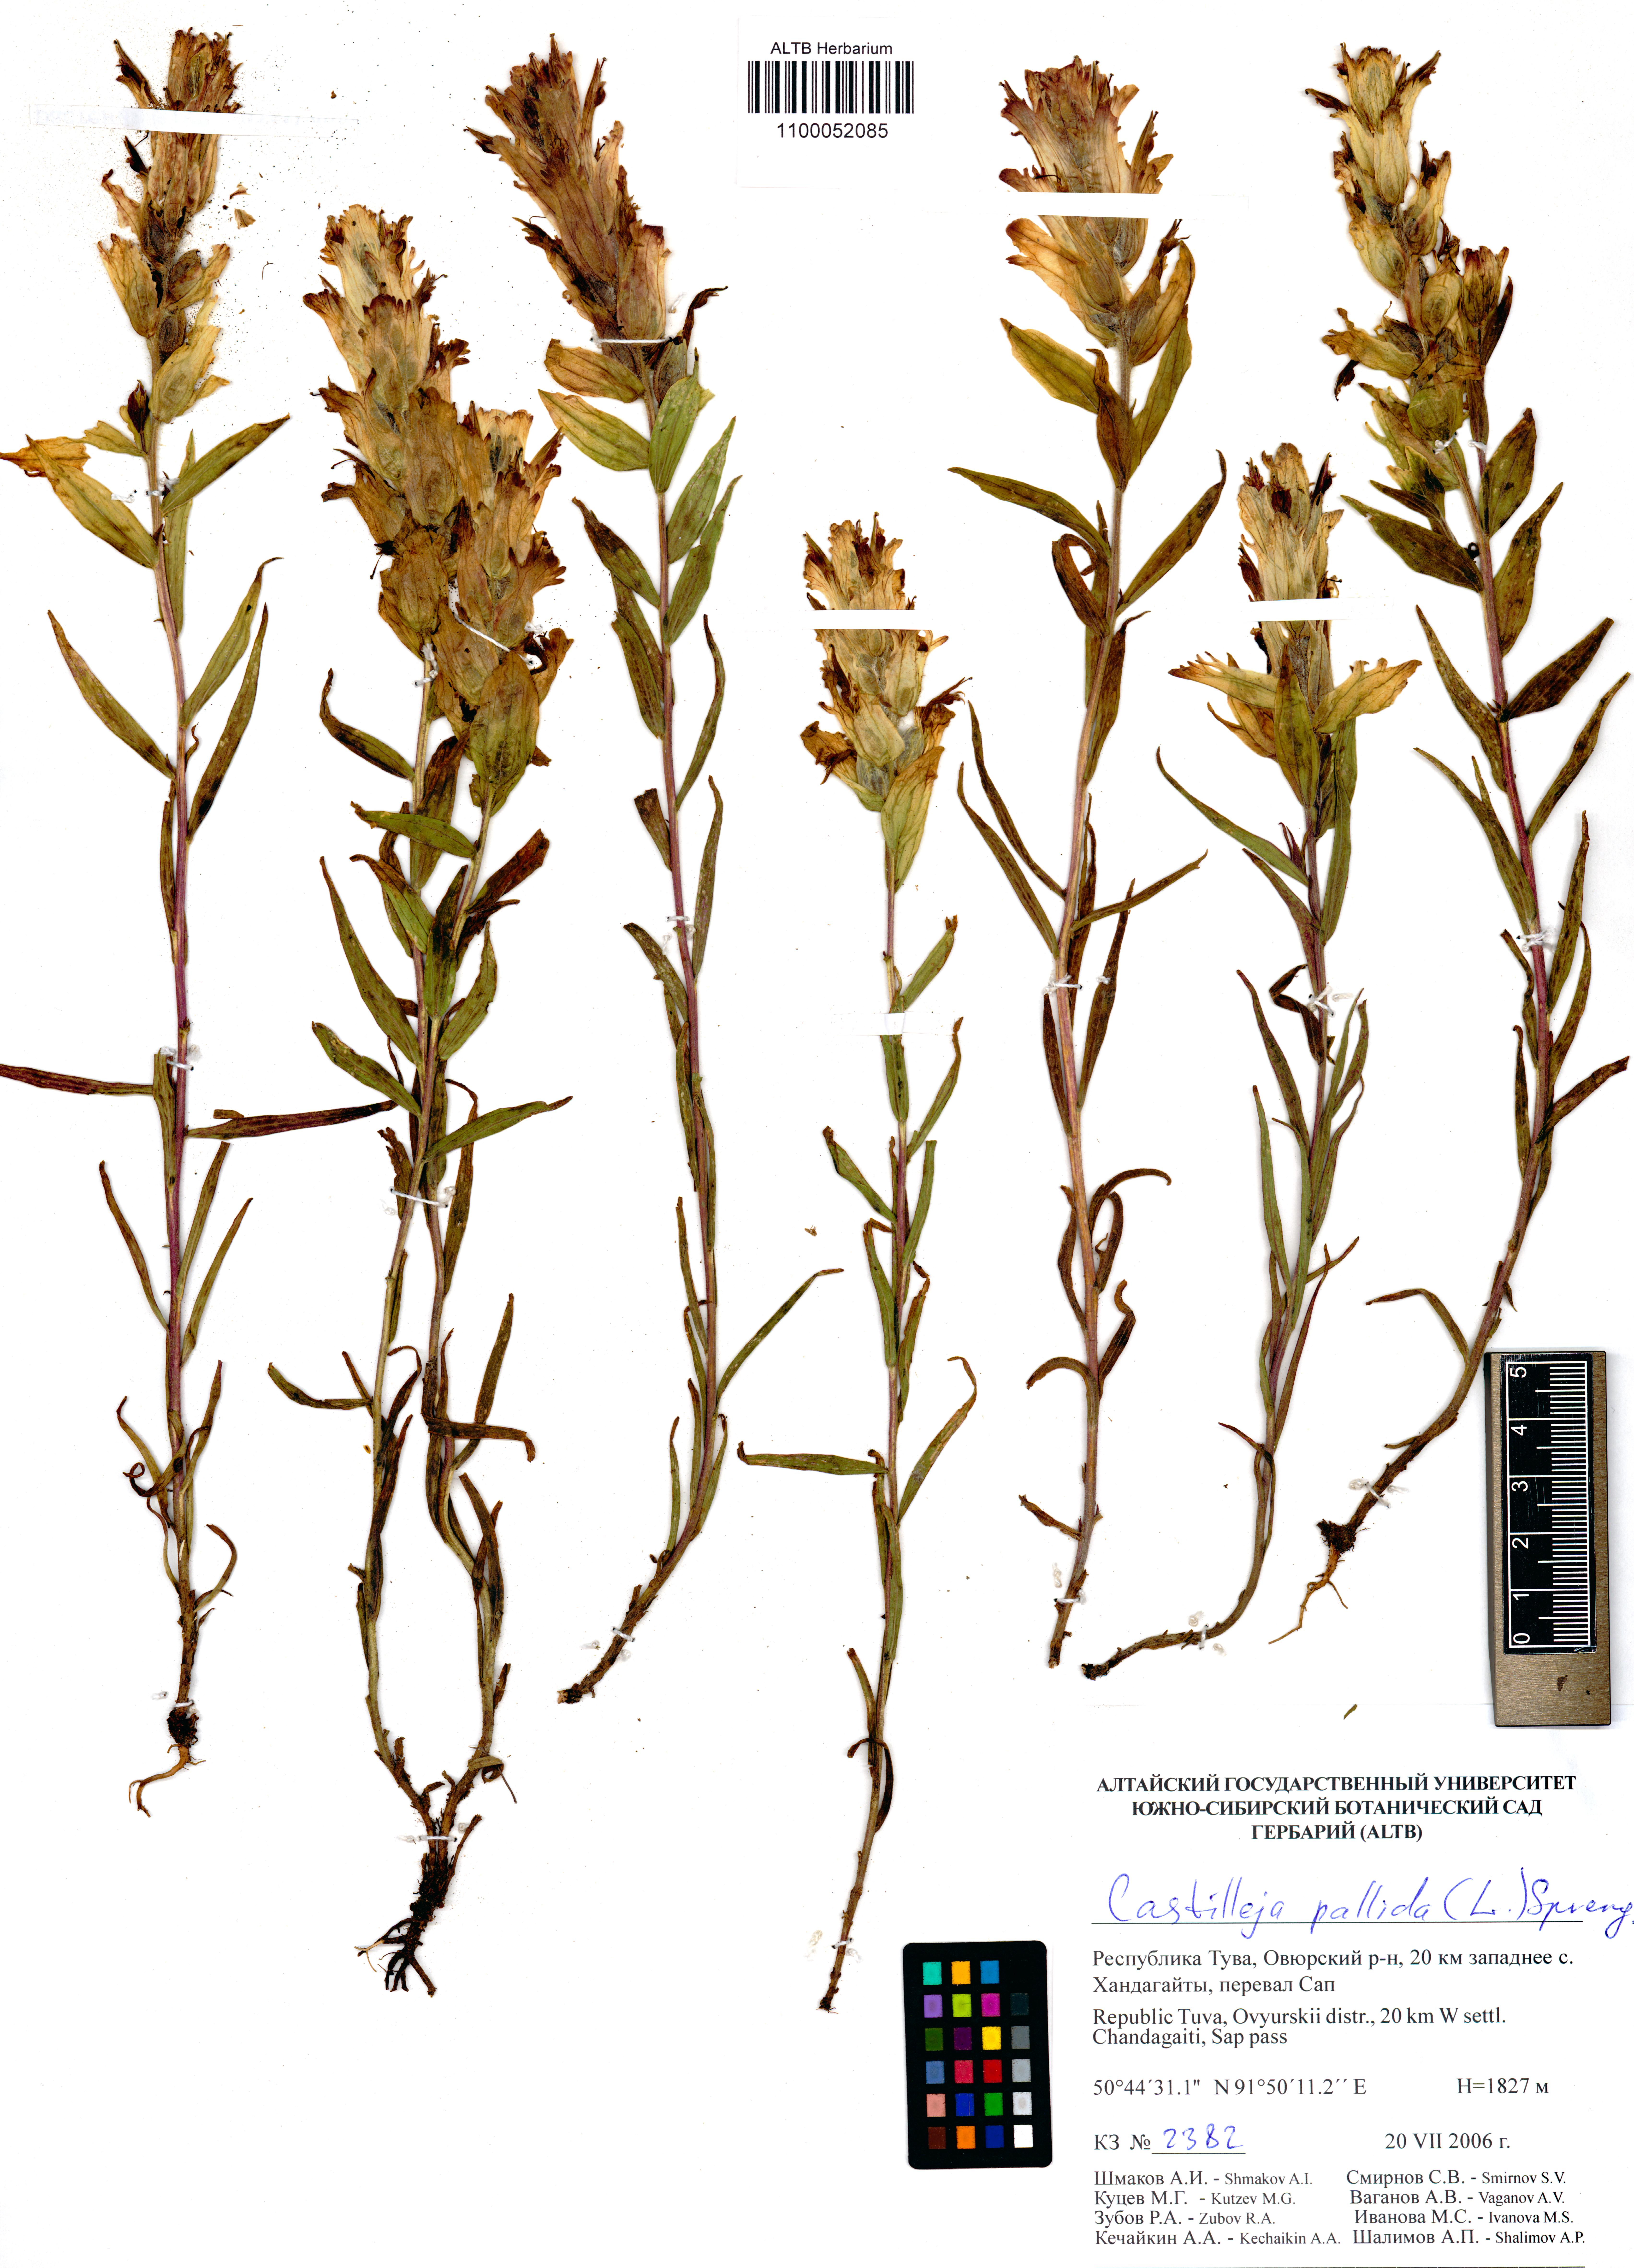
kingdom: Plantae
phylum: Tracheophyta
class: Magnoliopsida
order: Lamiales
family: Orobanchaceae
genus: Castilleja
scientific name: Castilleja pallida
